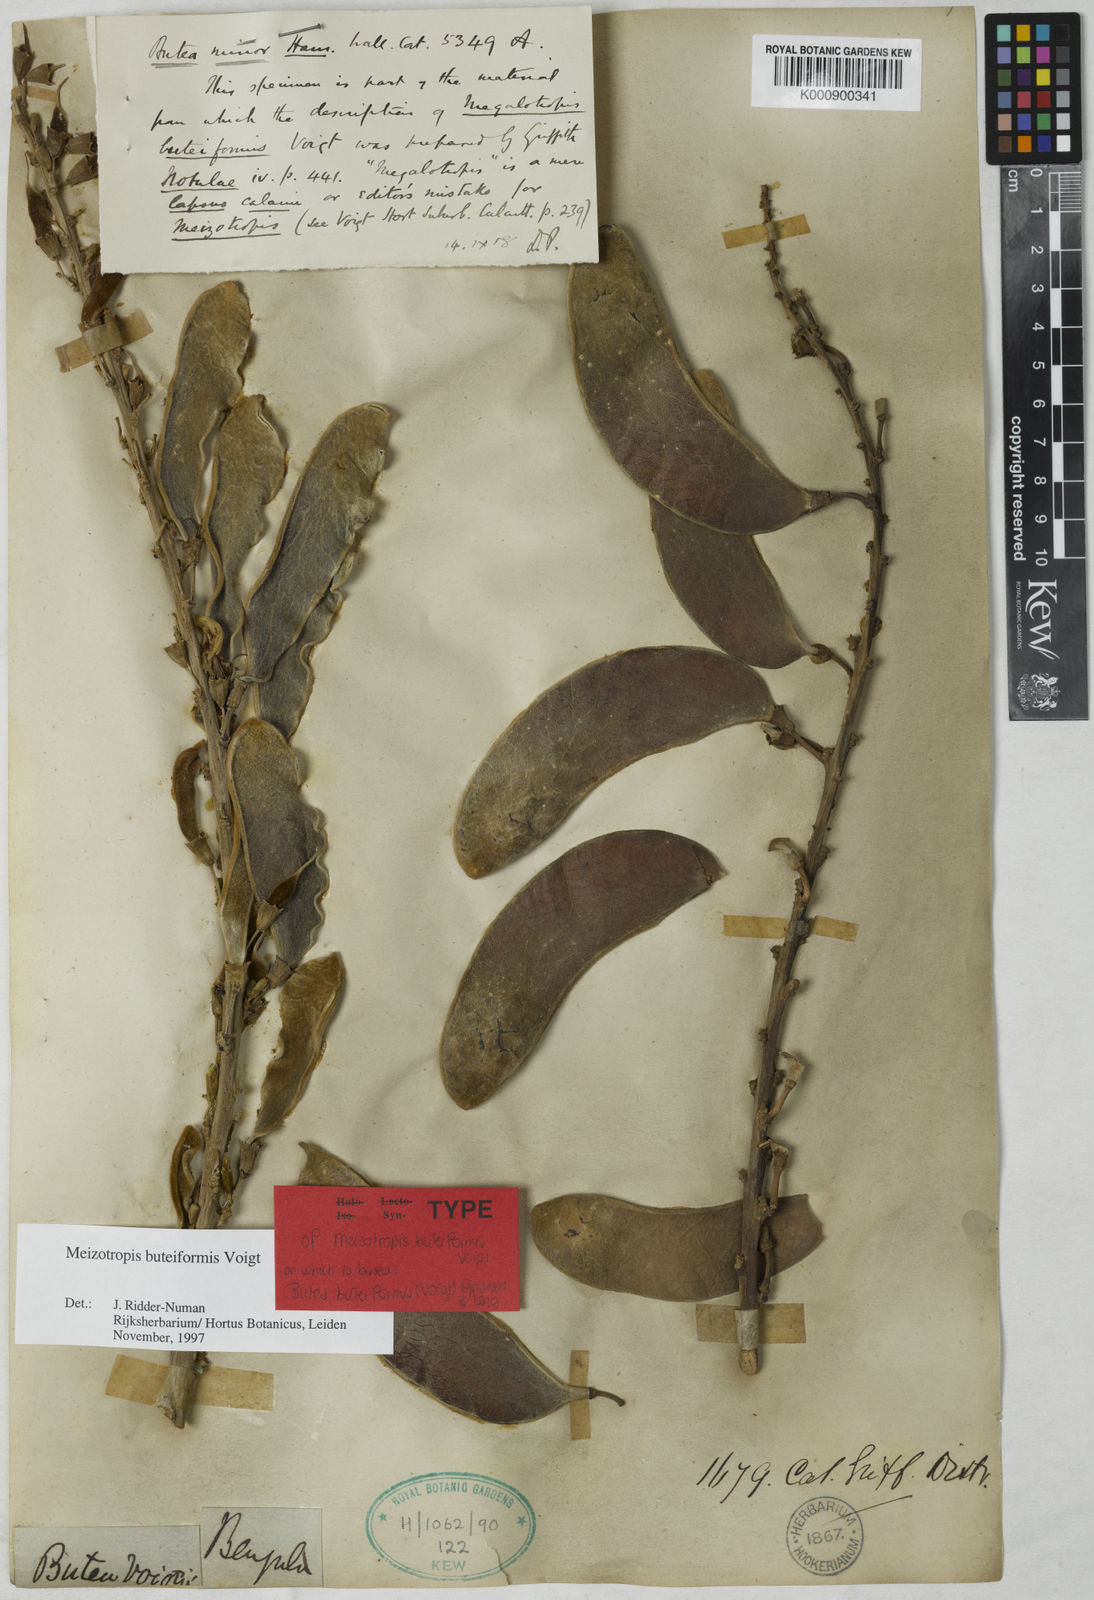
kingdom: Plantae
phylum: Tracheophyta
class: Magnoliopsida
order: Fabales
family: Fabaceae
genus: Butea
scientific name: Butea buteiformis
